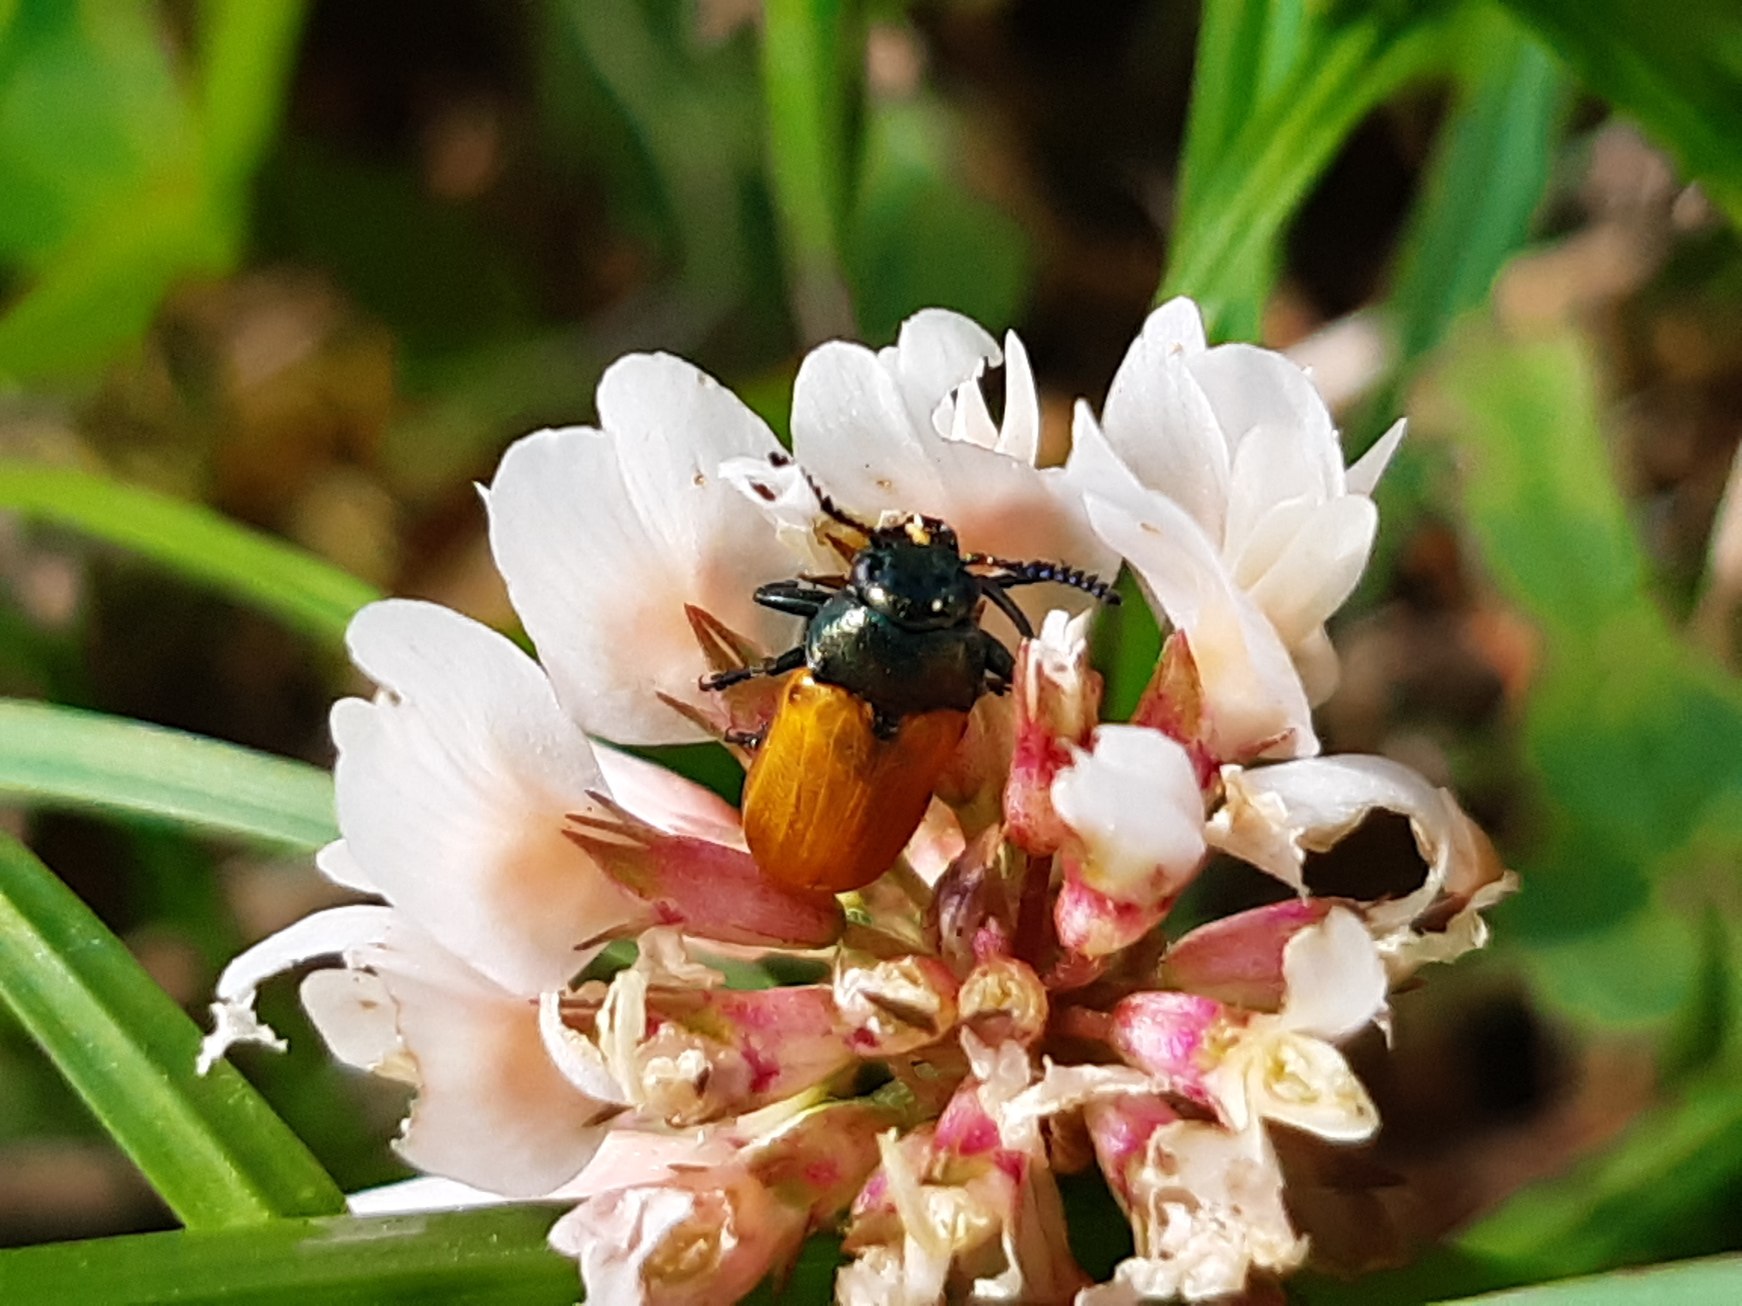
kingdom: Animalia
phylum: Arthropoda
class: Insecta
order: Coleoptera
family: Chrysomelidae
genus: Labidostomis
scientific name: Labidostomis longimana
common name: Lille langben
